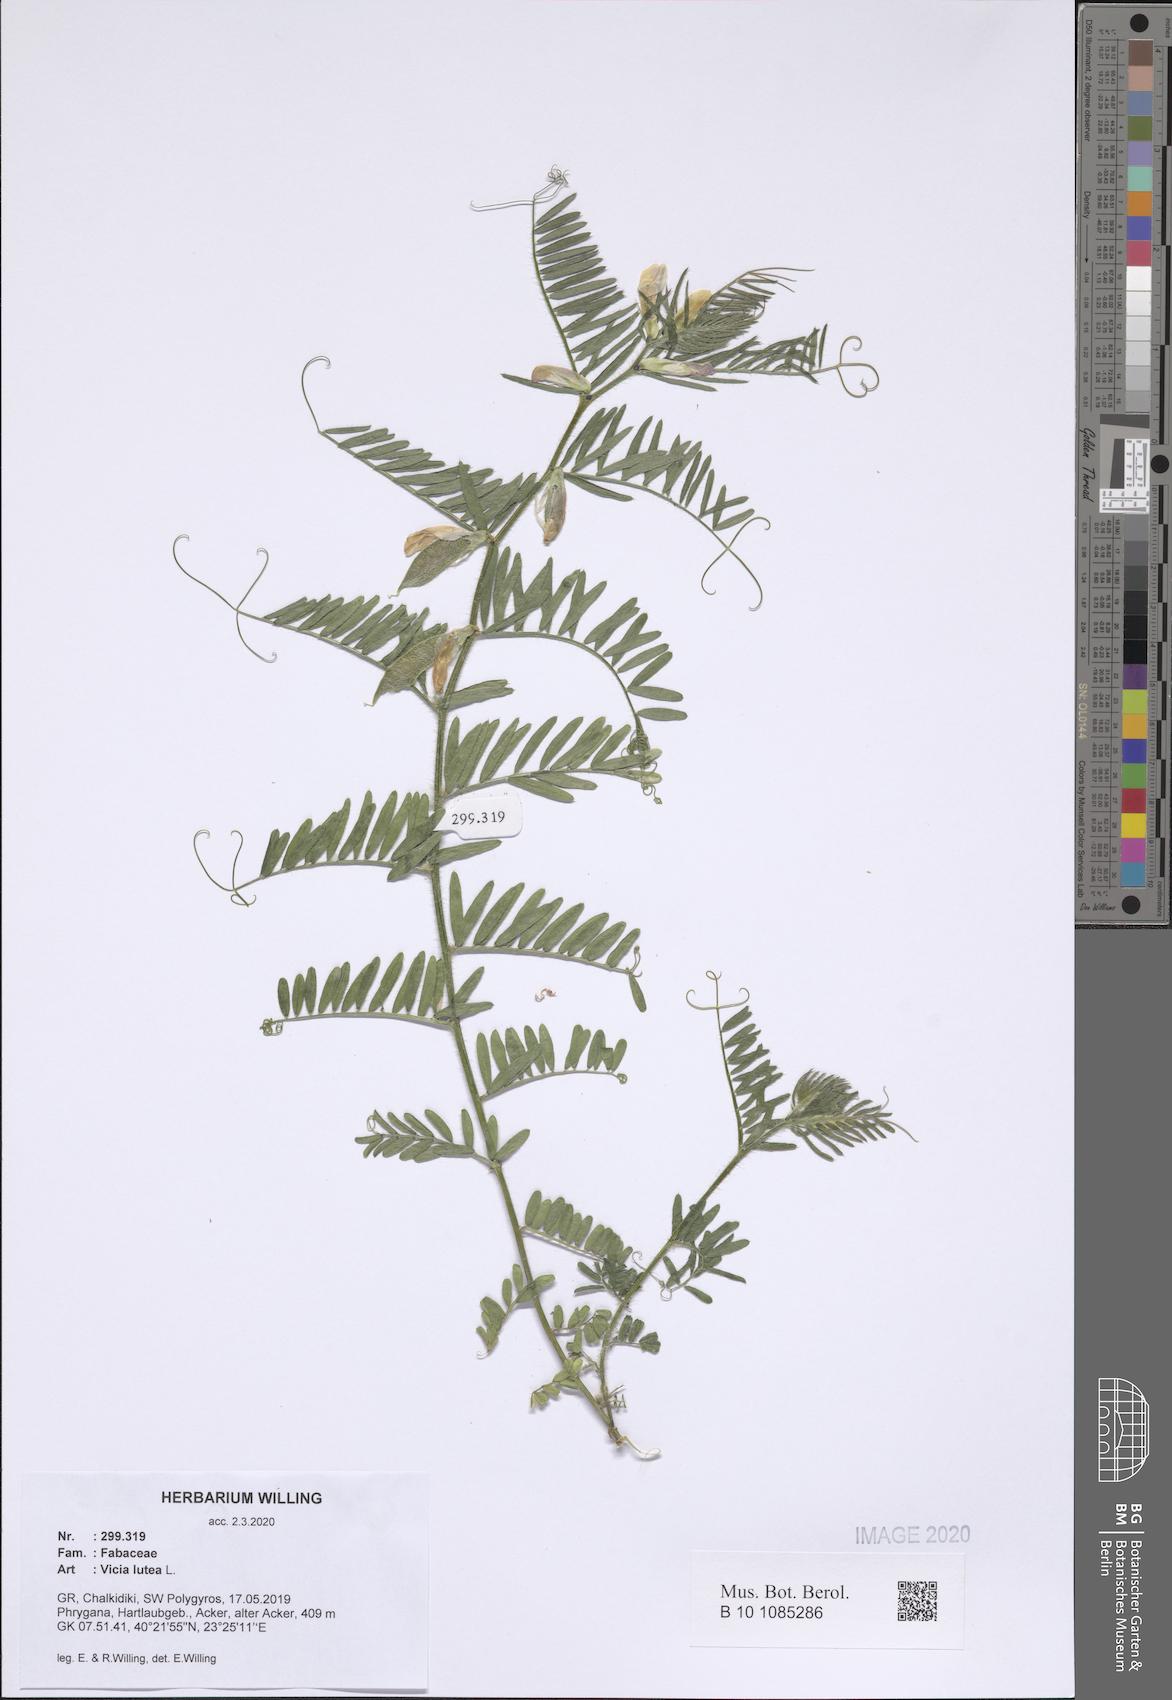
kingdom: Plantae
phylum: Tracheophyta
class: Magnoliopsida
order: Fabales
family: Fabaceae
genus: Vicia
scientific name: Vicia lutea
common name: Smooth yellow vetch
